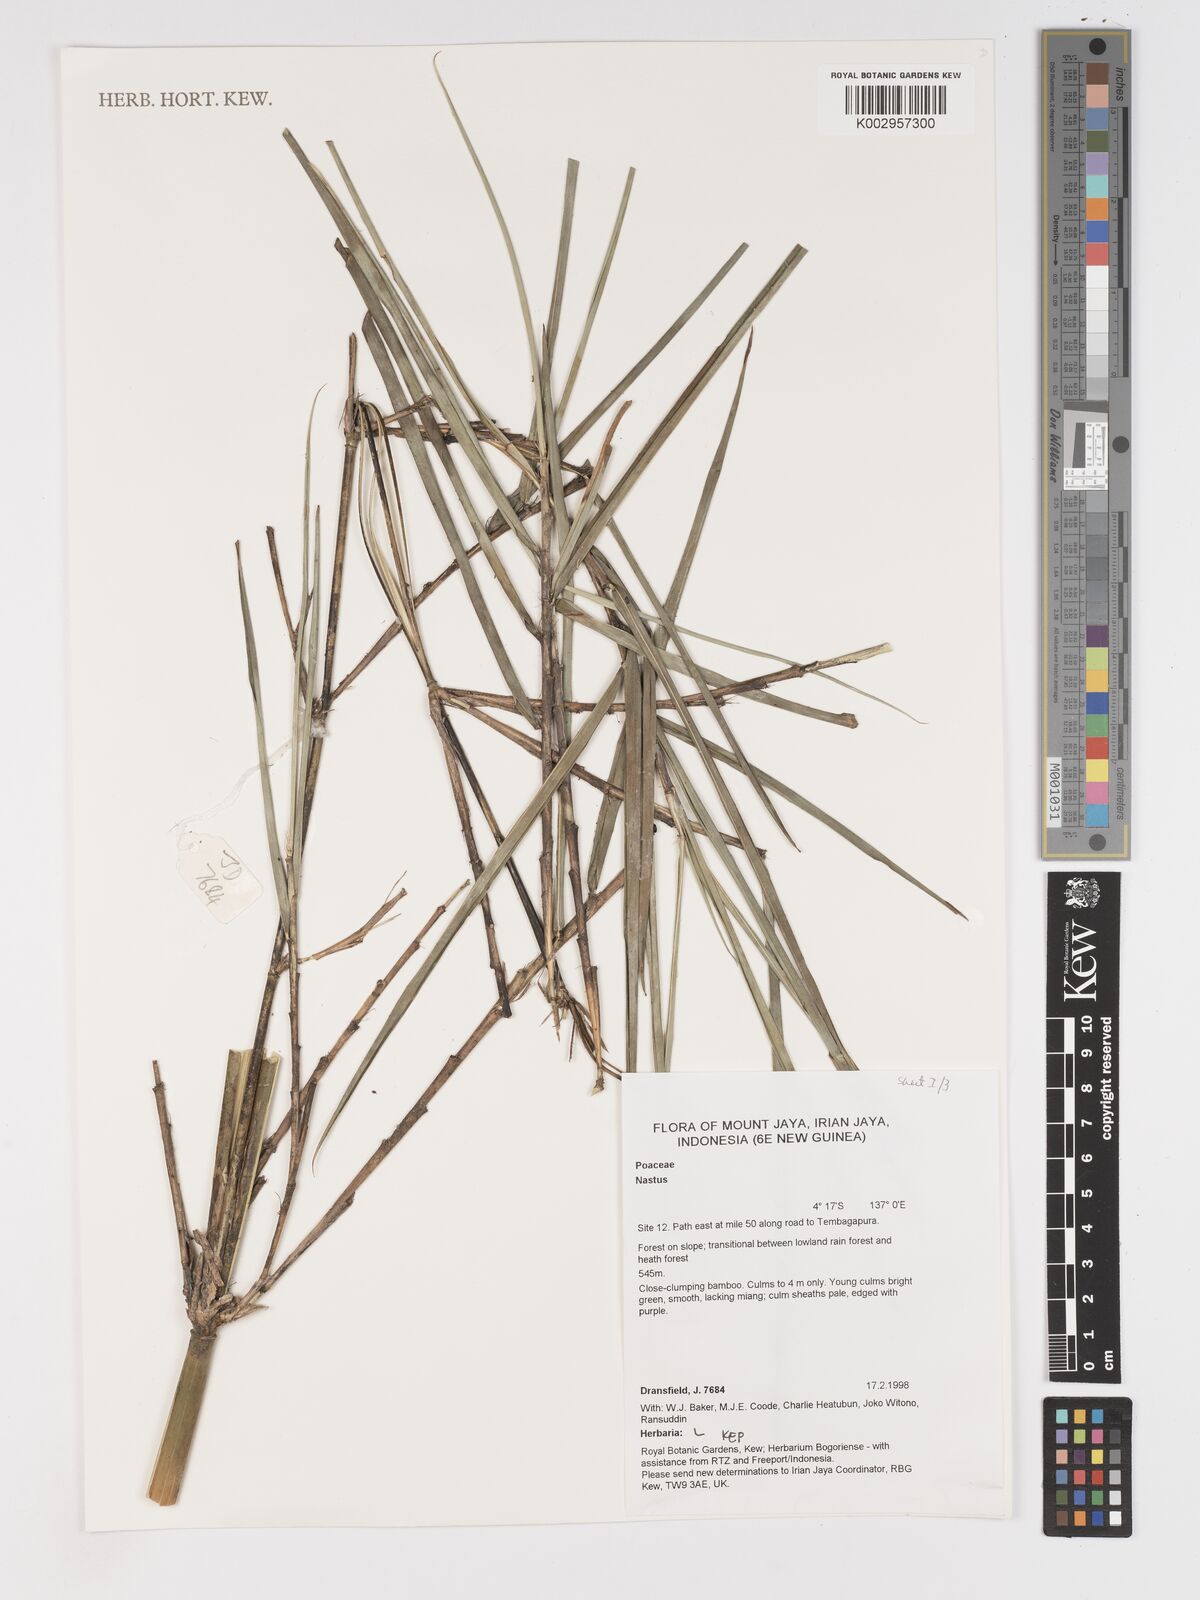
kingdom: Plantae
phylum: Tracheophyta
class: Liliopsida
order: Poales
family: Poaceae
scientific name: Poaceae
